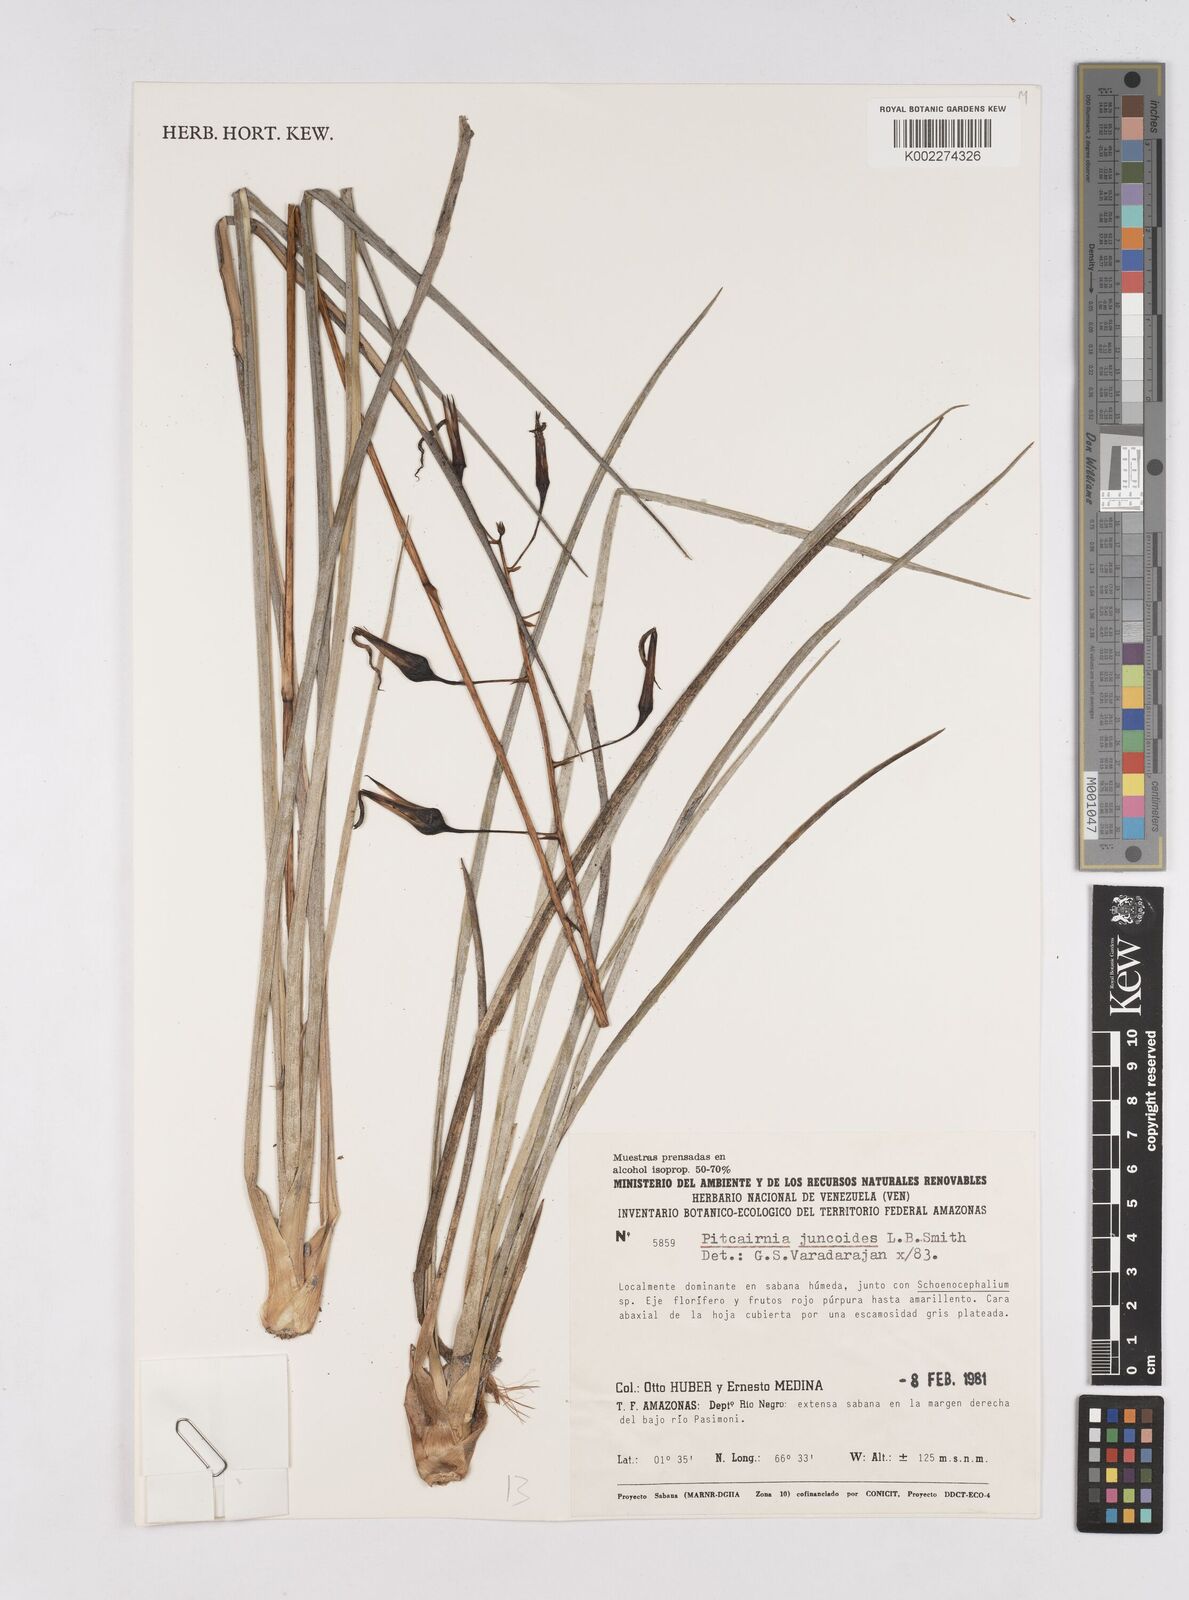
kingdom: Plantae
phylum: Tracheophyta
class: Liliopsida
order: Poales
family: Bromeliaceae
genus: Pitcairnia
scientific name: Pitcairnia juncoides
